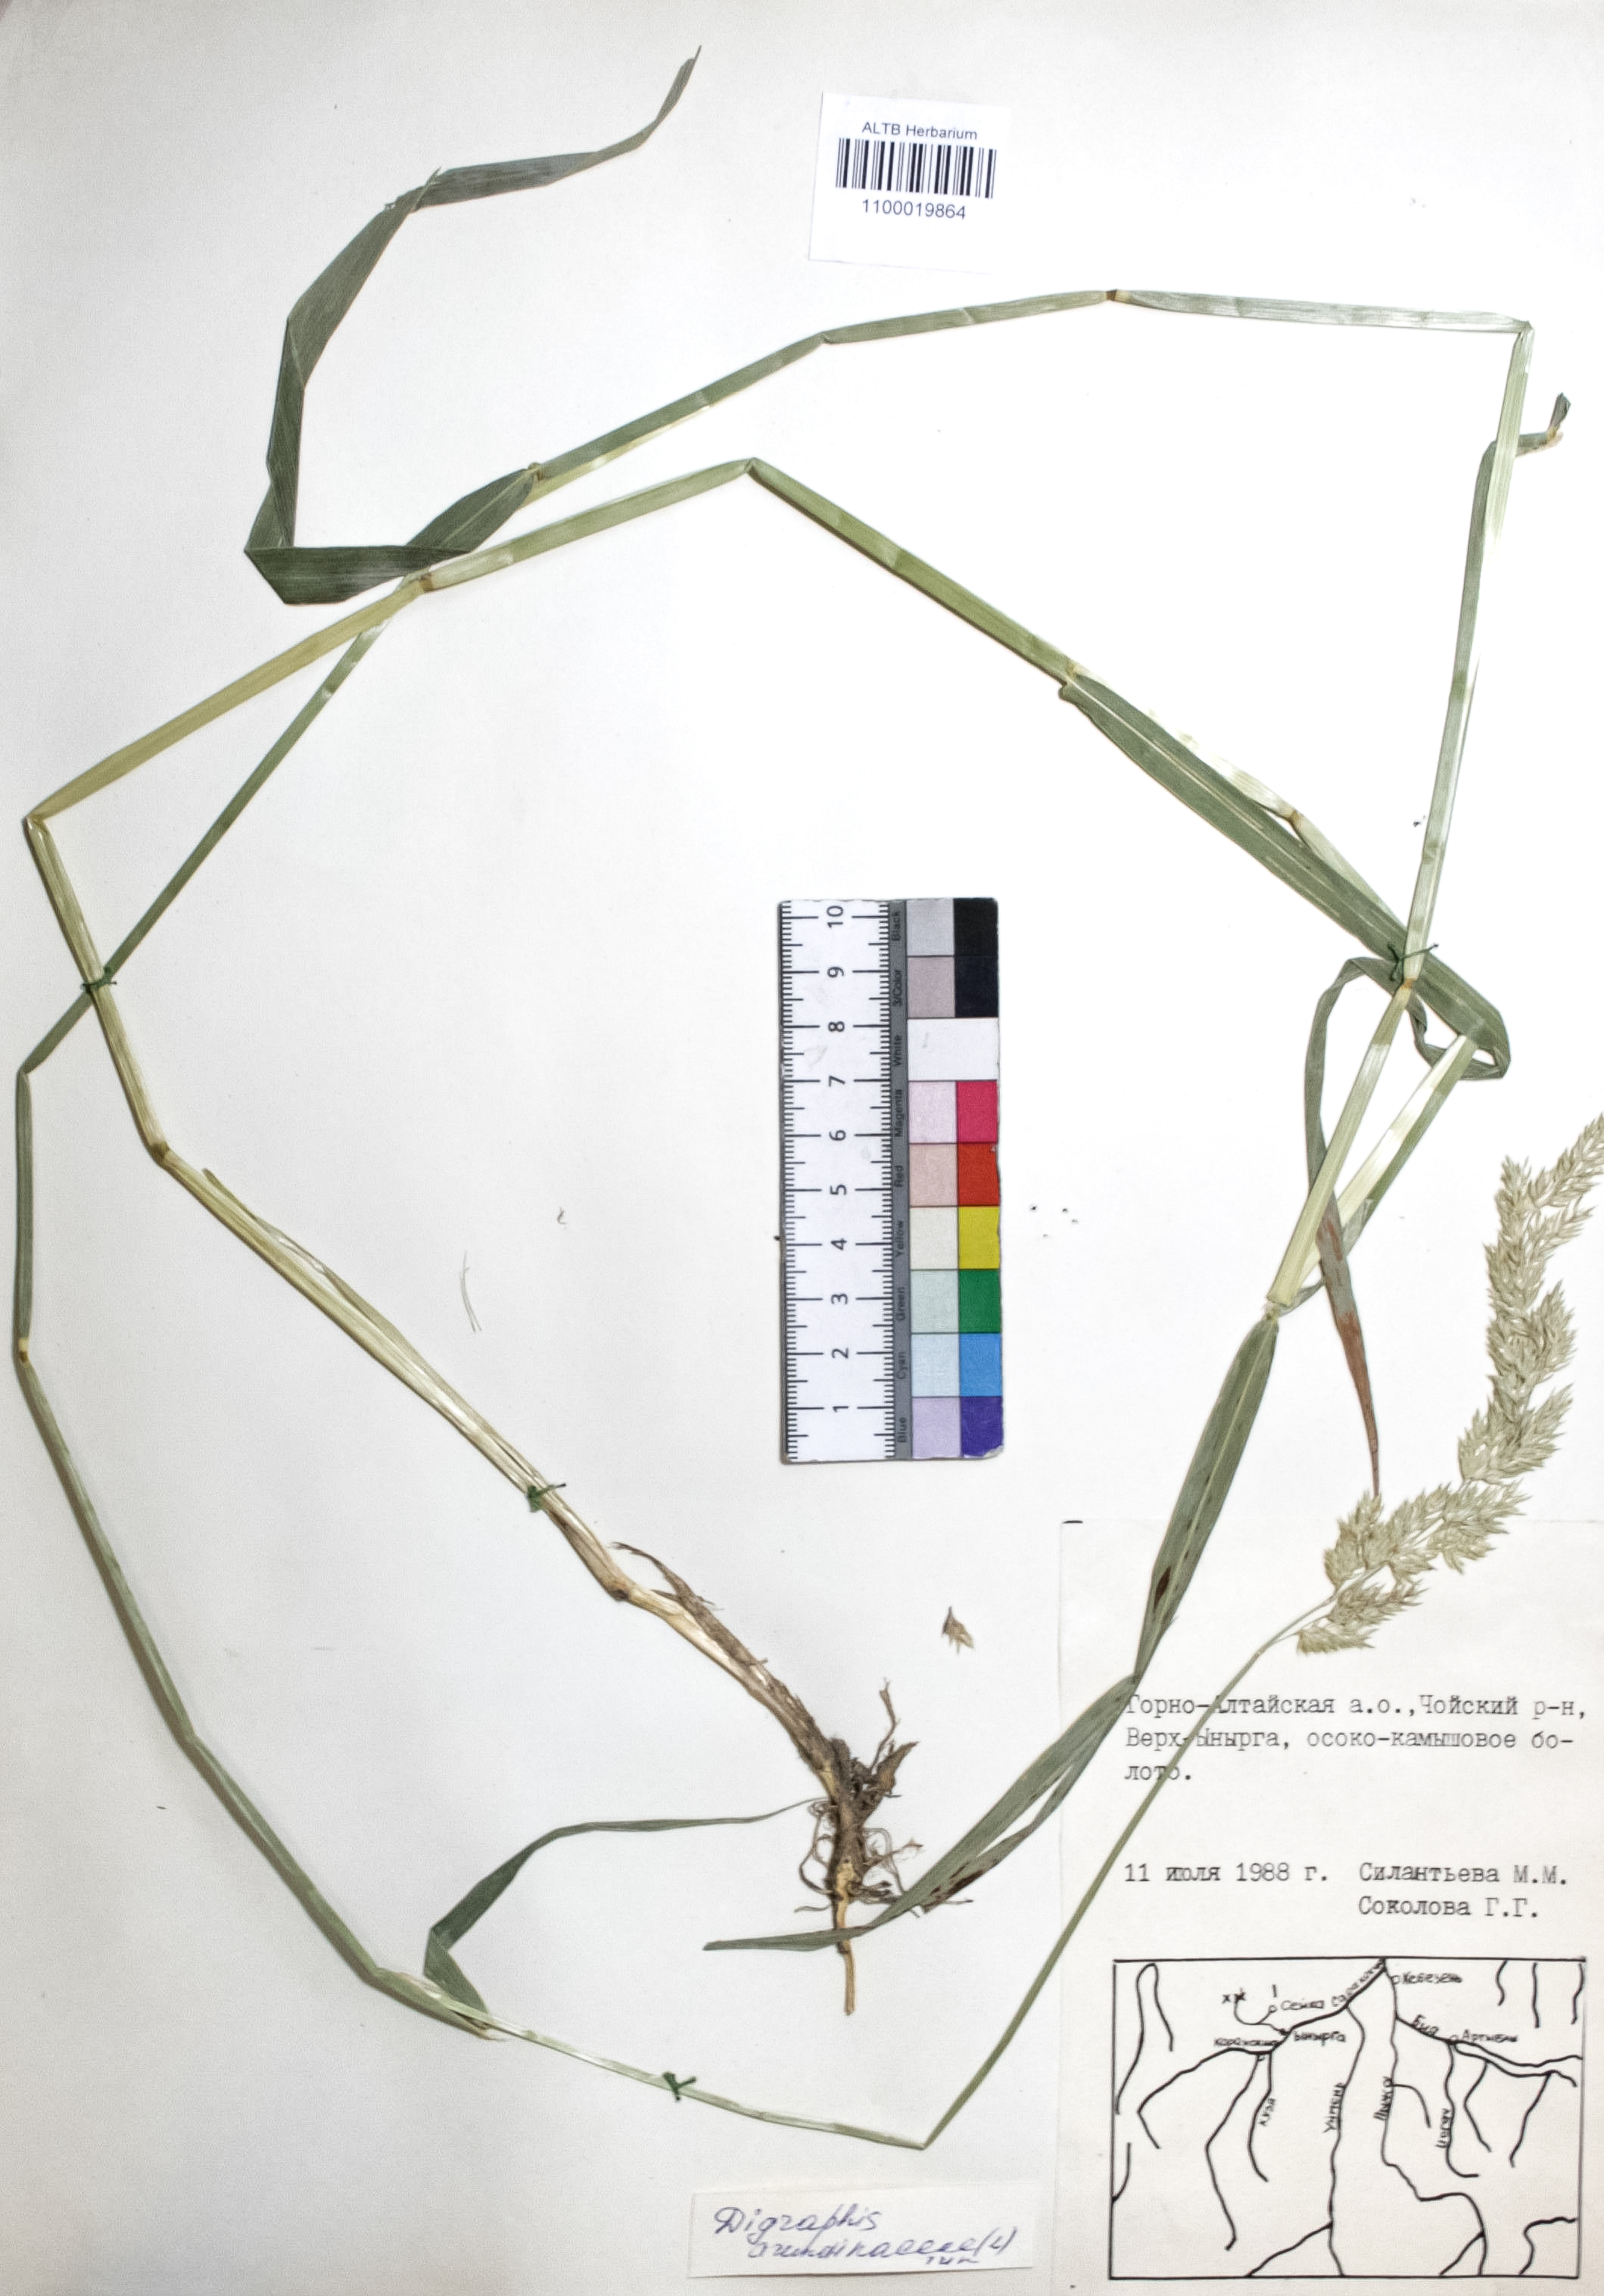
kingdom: Plantae
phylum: Tracheophyta
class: Liliopsida
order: Poales
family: Poaceae
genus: Phalaris
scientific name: Phalaris arundinacea
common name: Reed canary-grass
